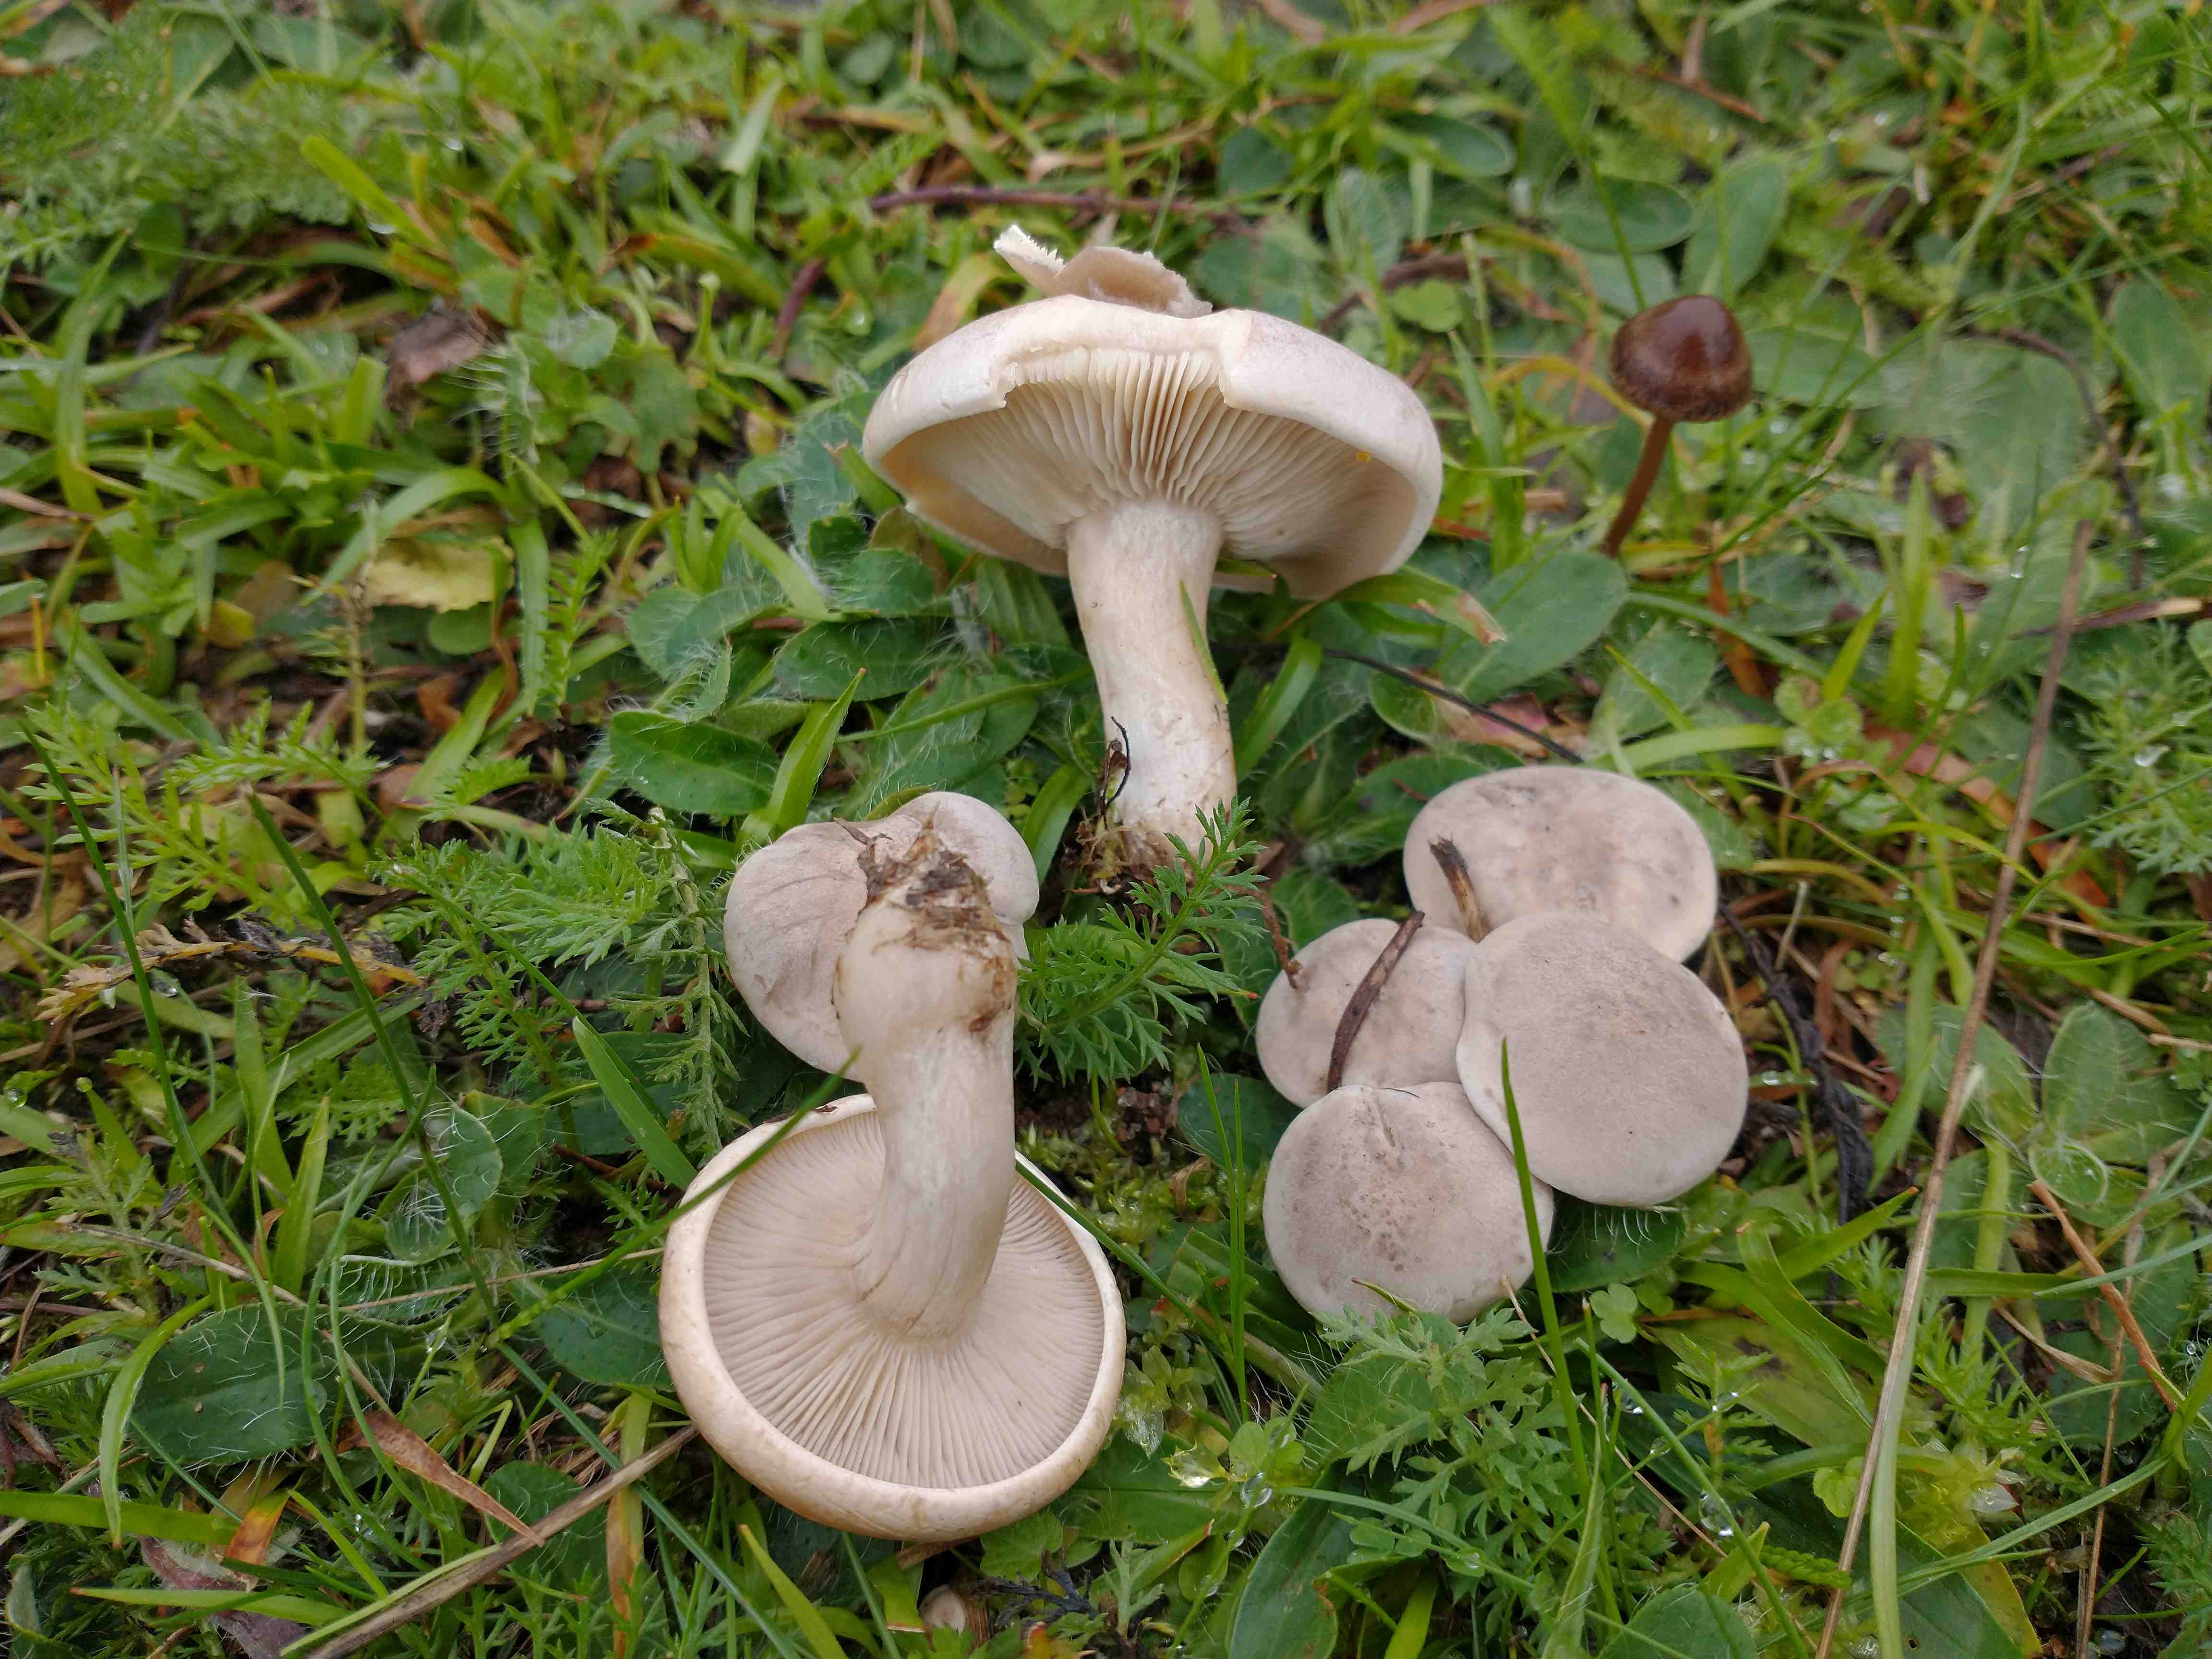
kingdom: Fungi
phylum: Basidiomycota
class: Agaricomycetes
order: Agaricales
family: Tricholomataceae
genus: Lepista
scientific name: Lepista panaeolus
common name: marmoreret hekseringshat
